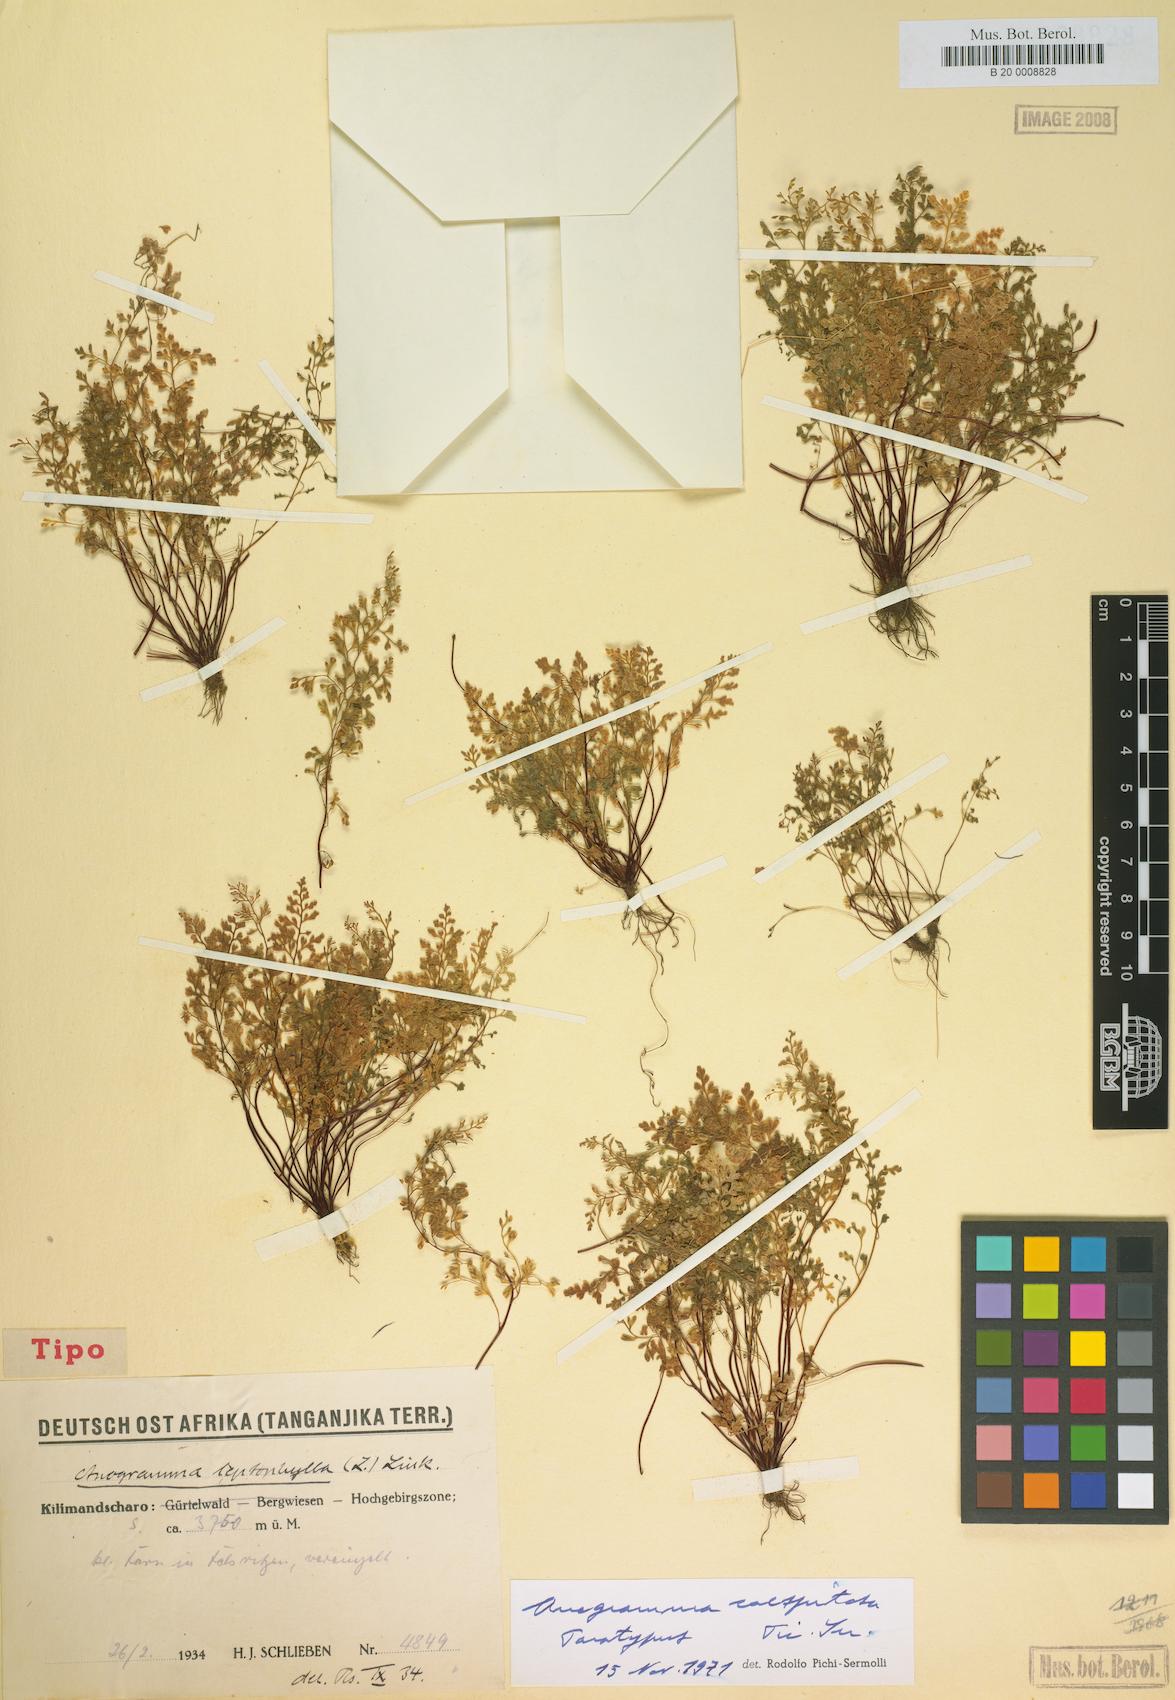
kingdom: Plantae
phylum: Tracheophyta
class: Polypodiopsida
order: Polypodiales
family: Pteridaceae
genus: Anogramma
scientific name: Anogramma leptophylla
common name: Jersey fern
